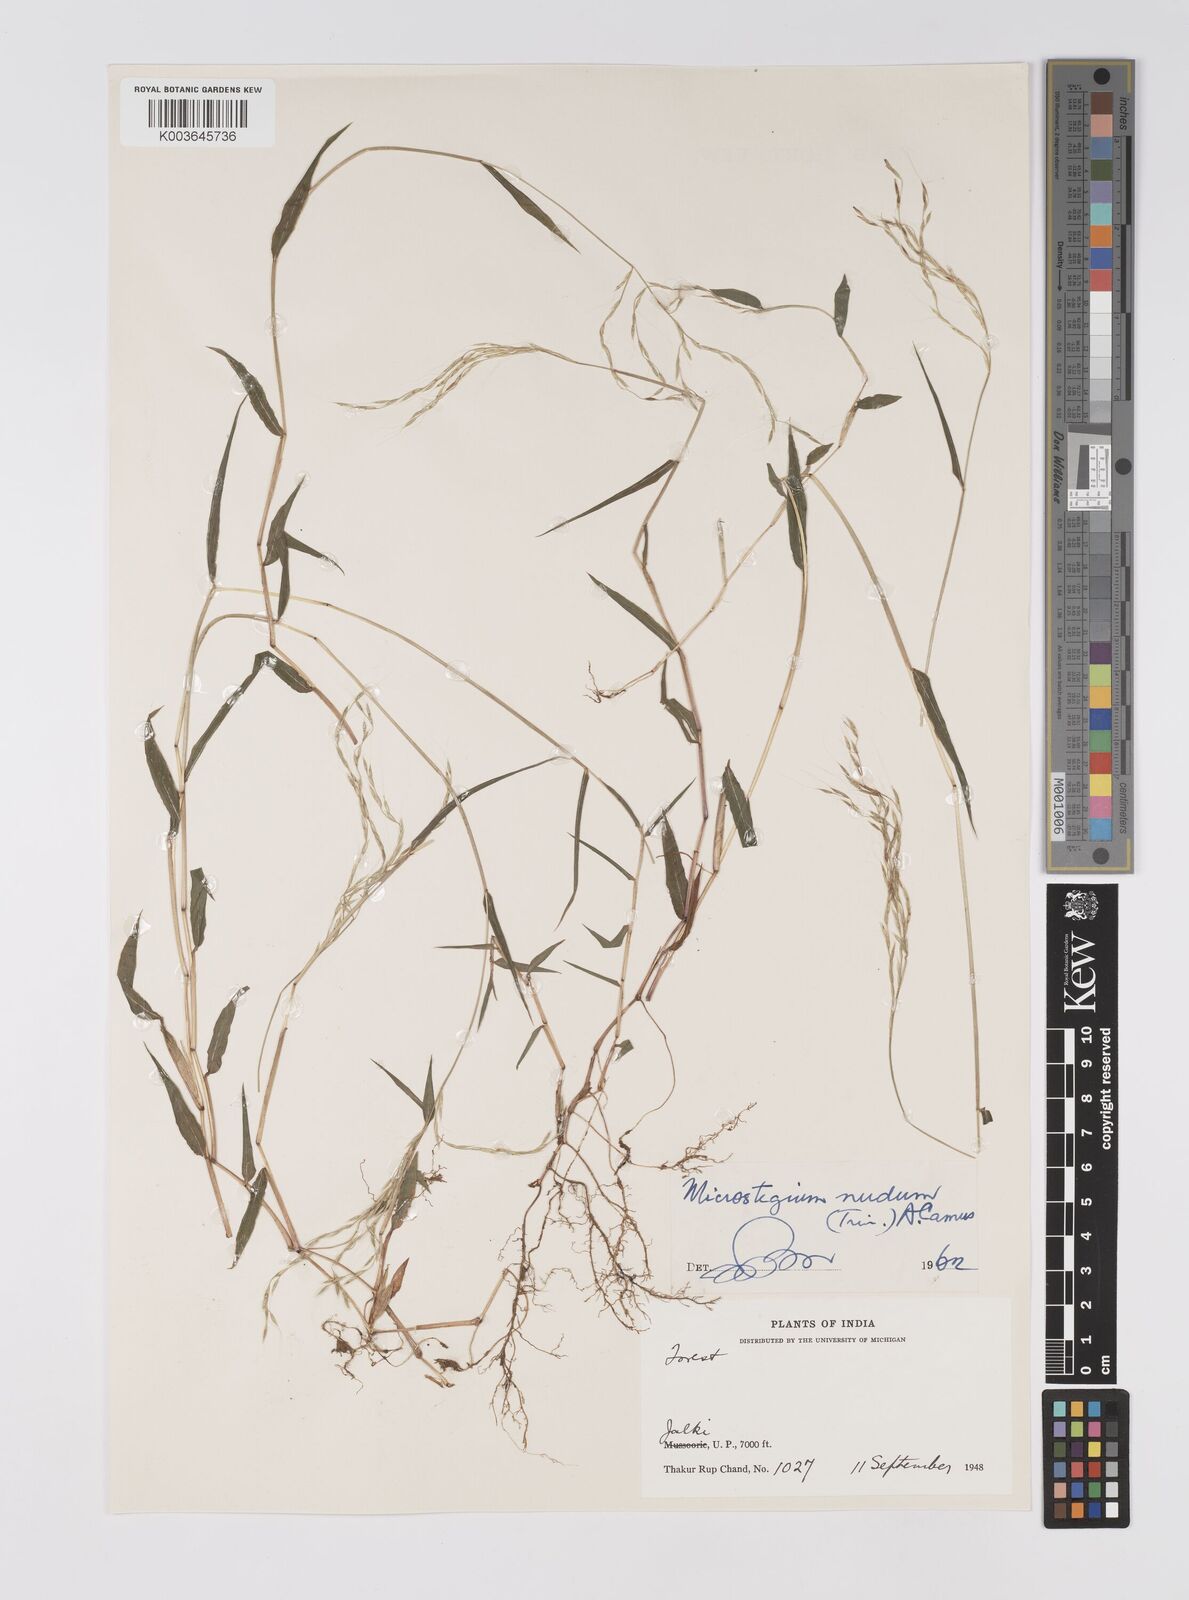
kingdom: Plantae
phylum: Tracheophyta
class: Liliopsida
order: Poales
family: Poaceae
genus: Microstegium
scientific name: Microstegium nudum
